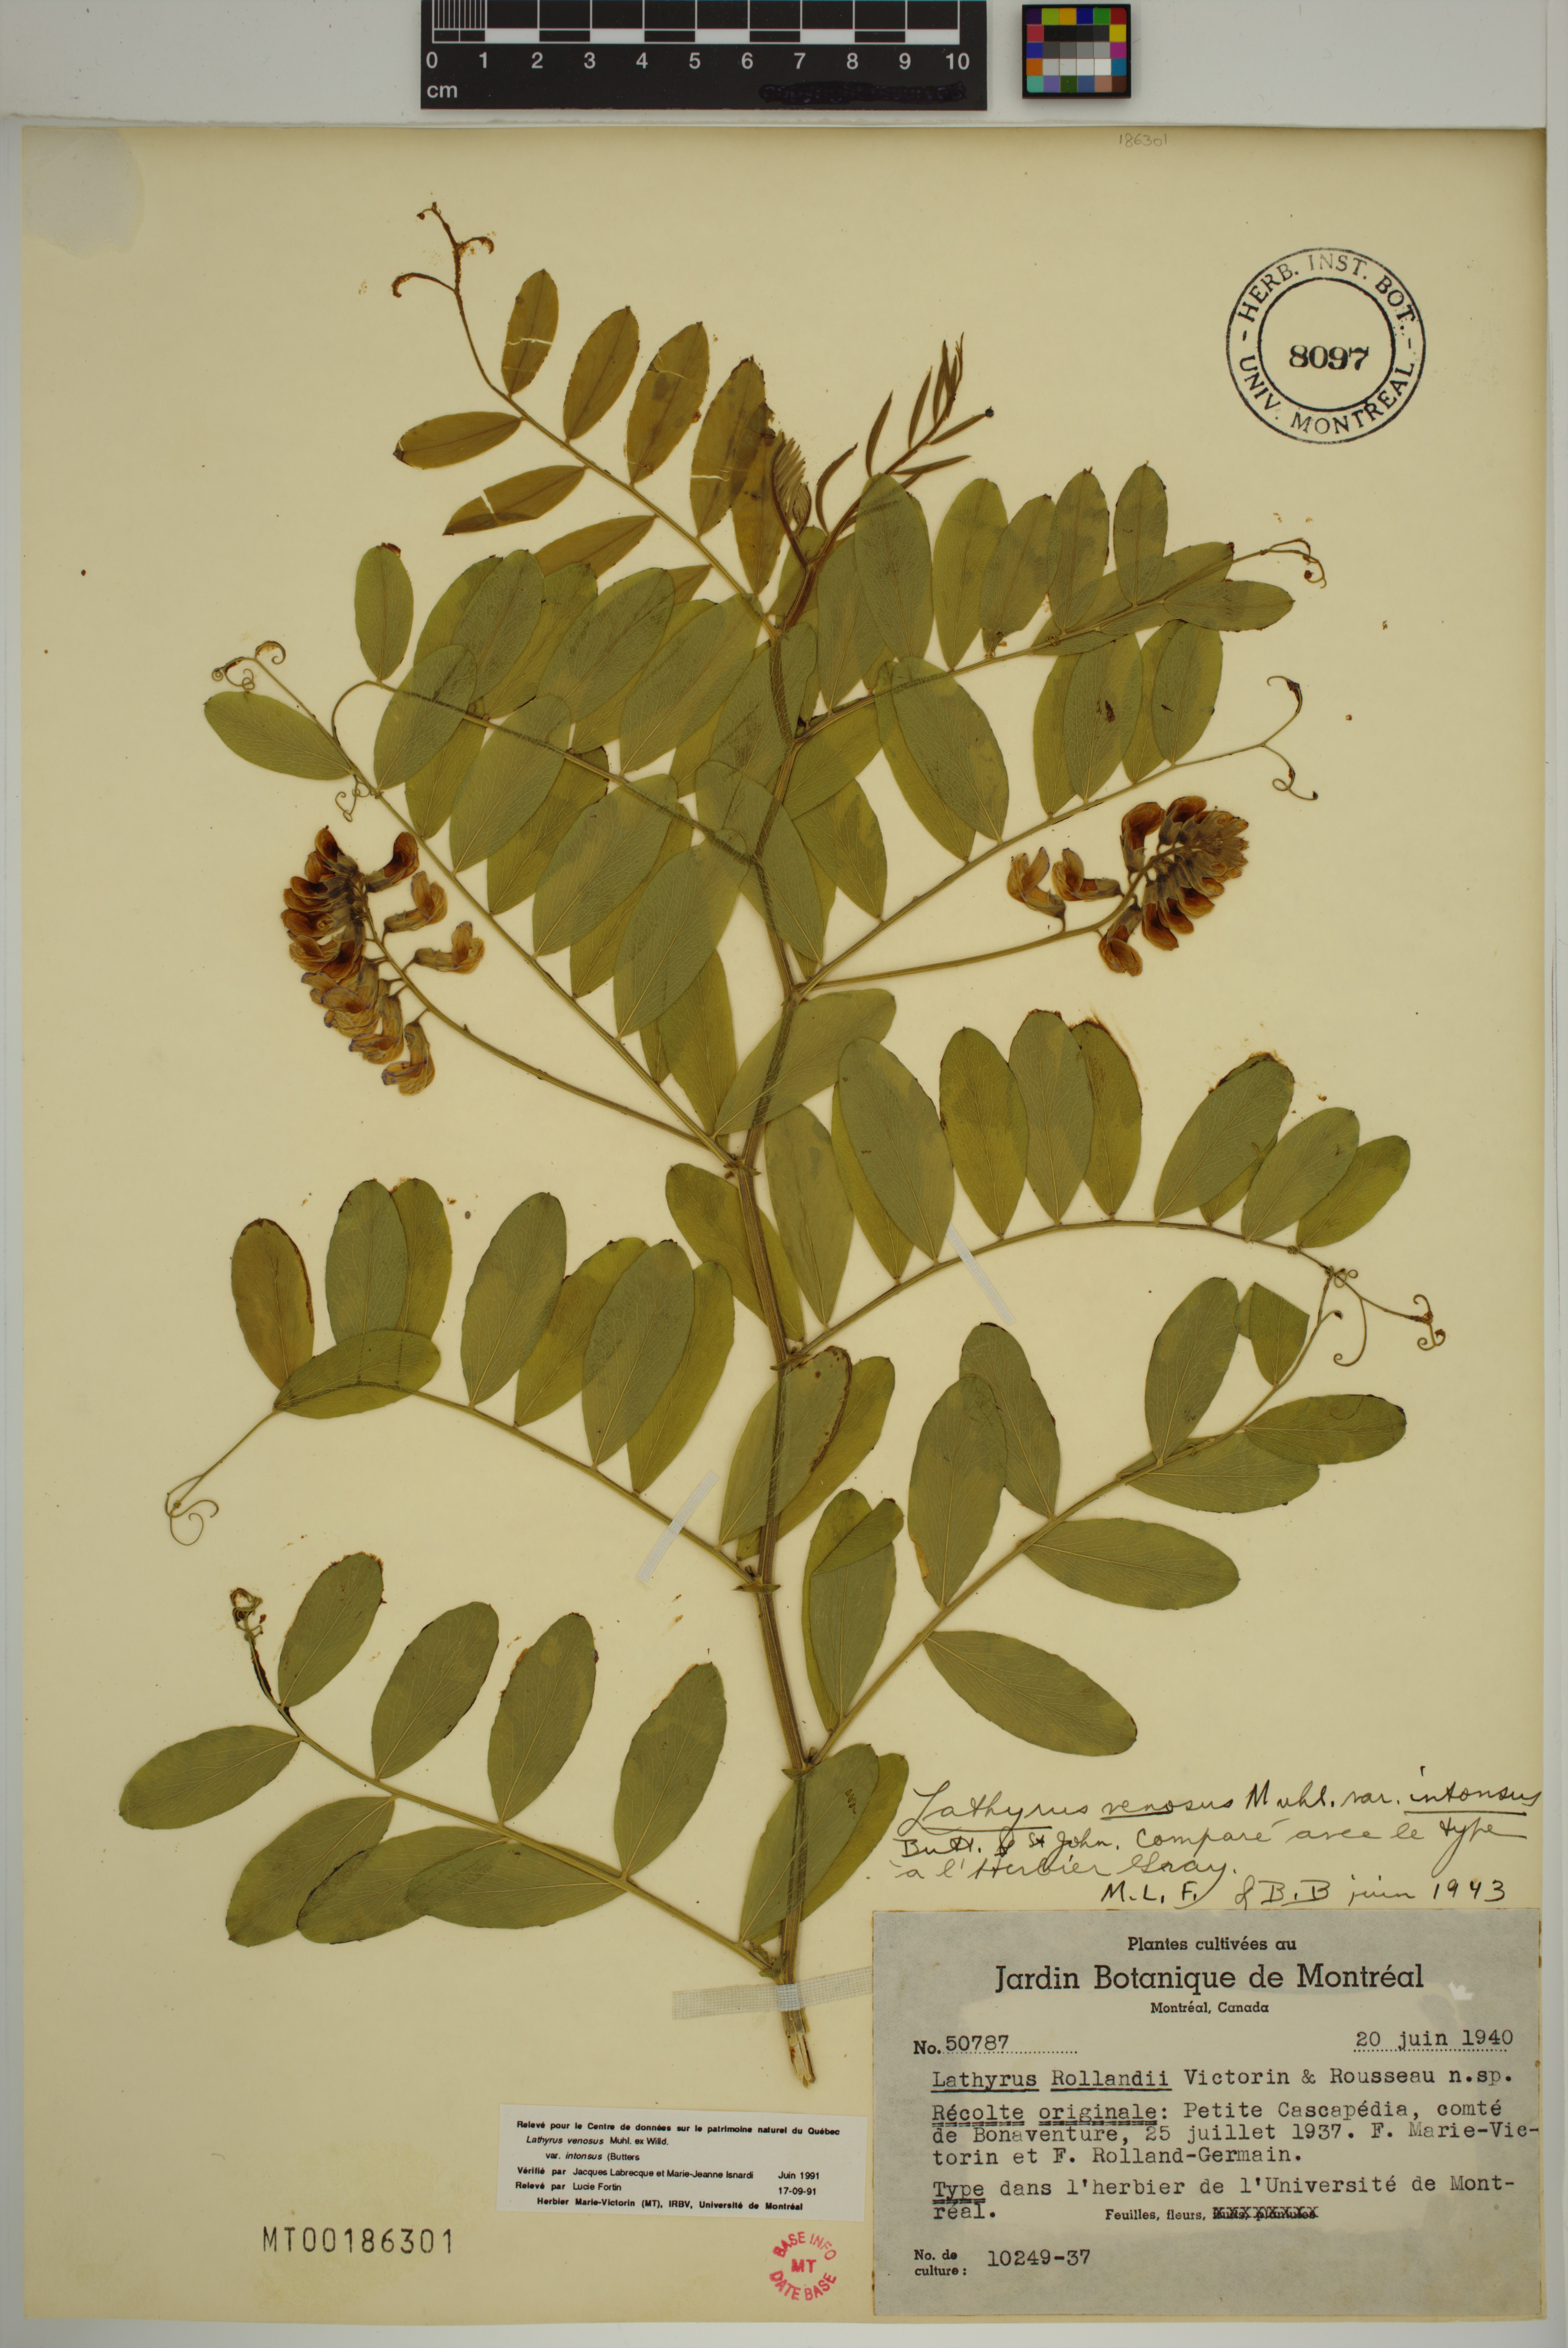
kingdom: Plantae
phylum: Tracheophyta
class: Magnoliopsida
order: Fabales
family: Fabaceae
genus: Lathyrus
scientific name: Lathyrus venosus
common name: Forest-pea
